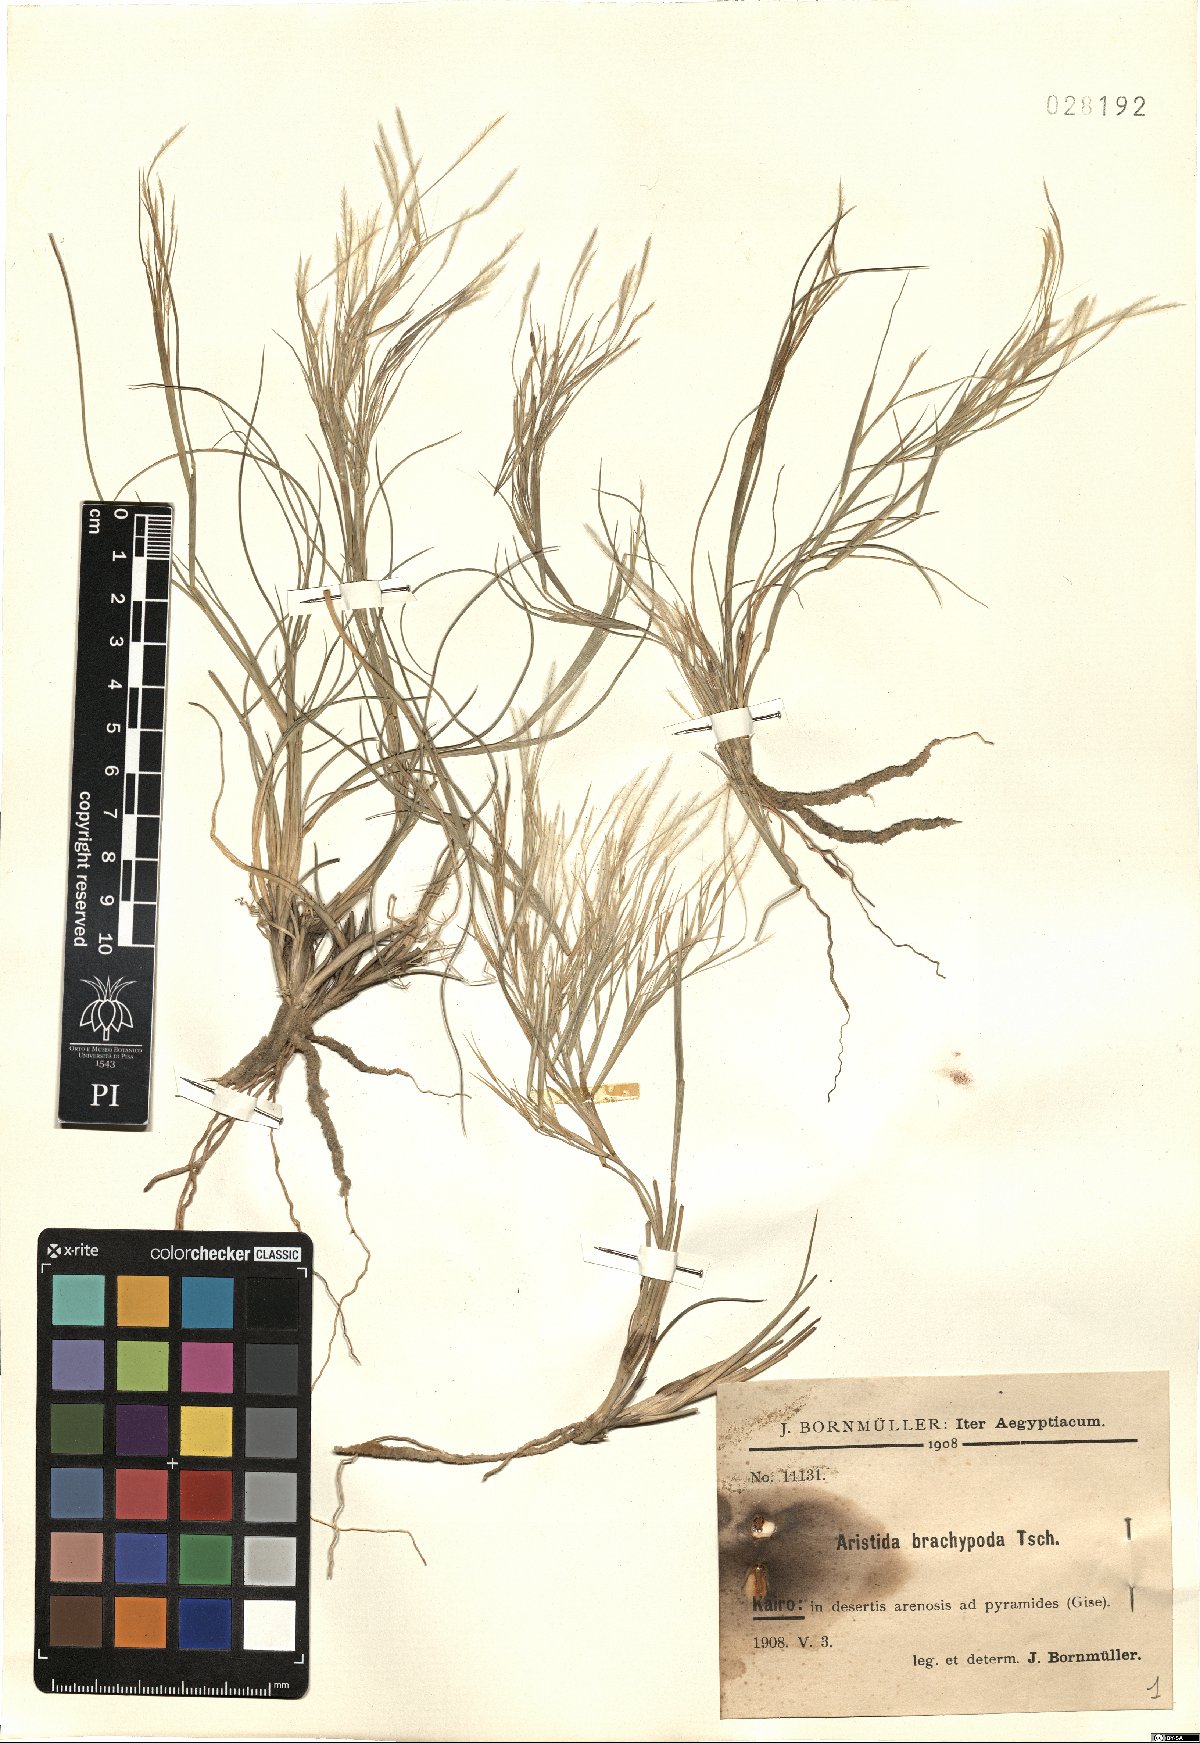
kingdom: Plantae
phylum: Tracheophyta
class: Liliopsida
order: Poales
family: Poaceae
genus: Stipagrostis
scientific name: Stipagrostis plumosa
